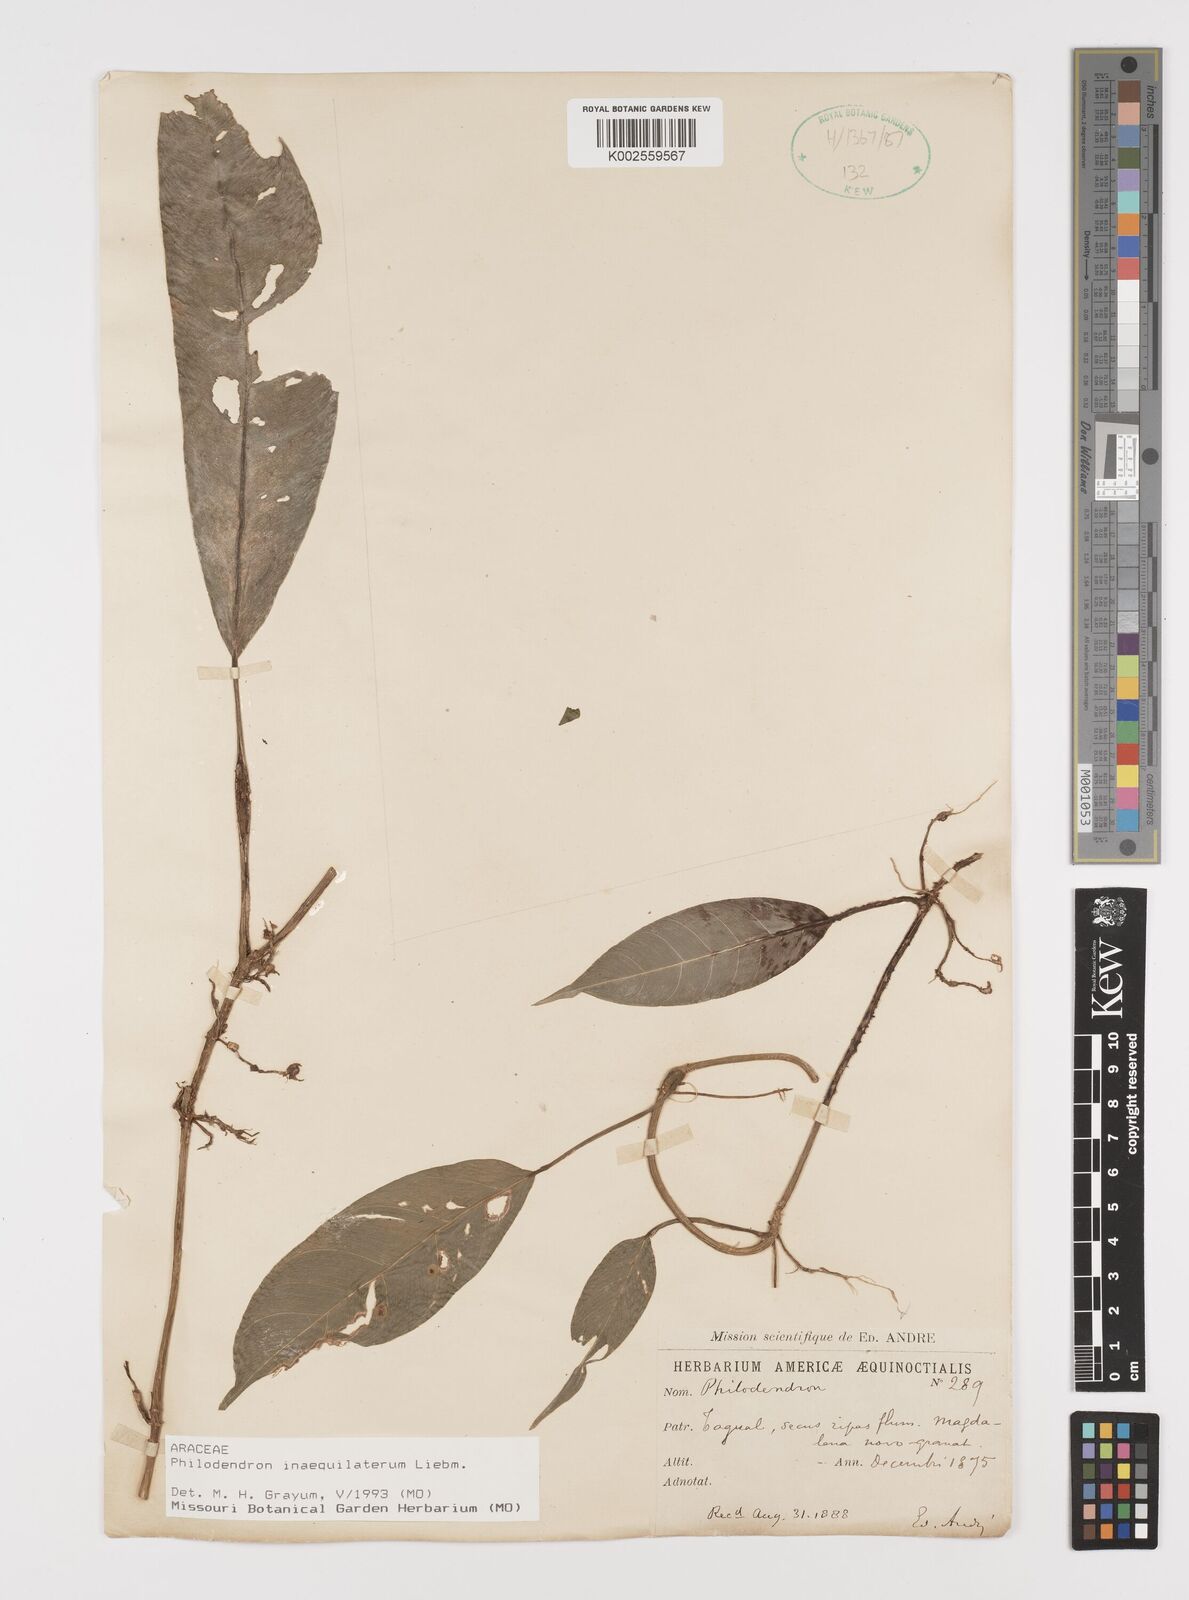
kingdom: Plantae
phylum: Tracheophyta
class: Liliopsida
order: Alismatales
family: Araceae
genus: Philodendron
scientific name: Philodendron inaequilaterum
